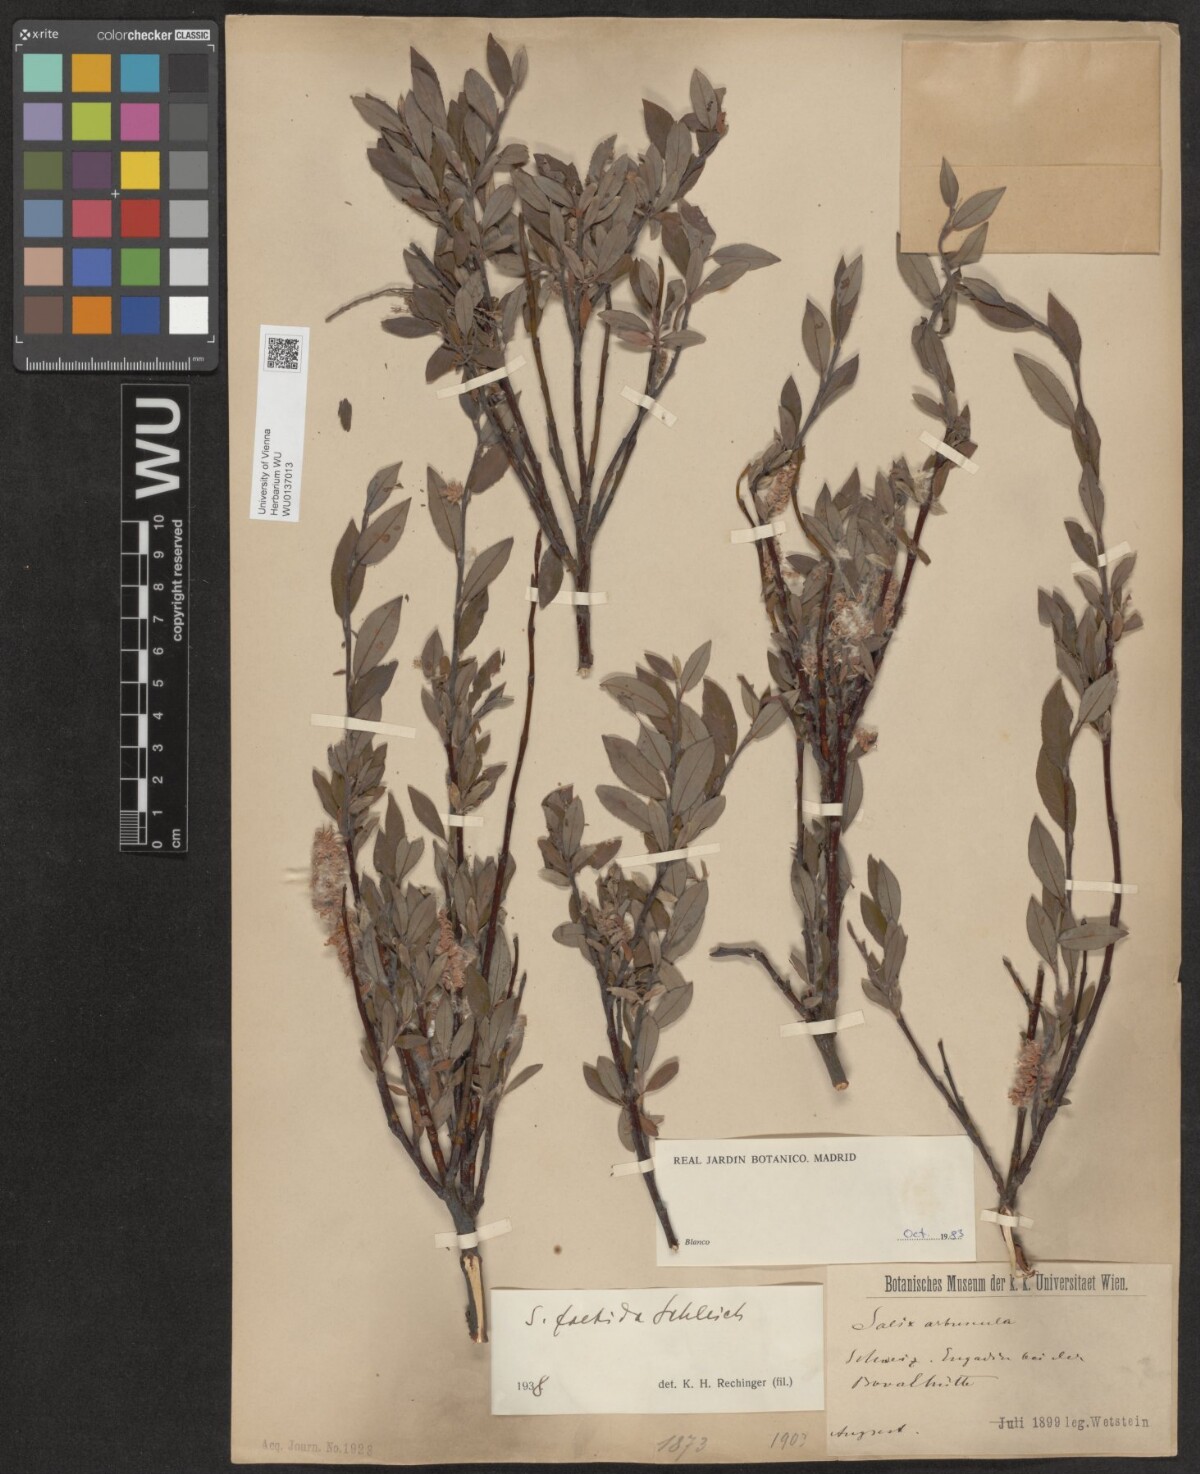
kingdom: Plantae
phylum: Tracheophyta
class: Magnoliopsida
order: Malpighiales
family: Salicaceae
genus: Salix
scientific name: Salix foetida
